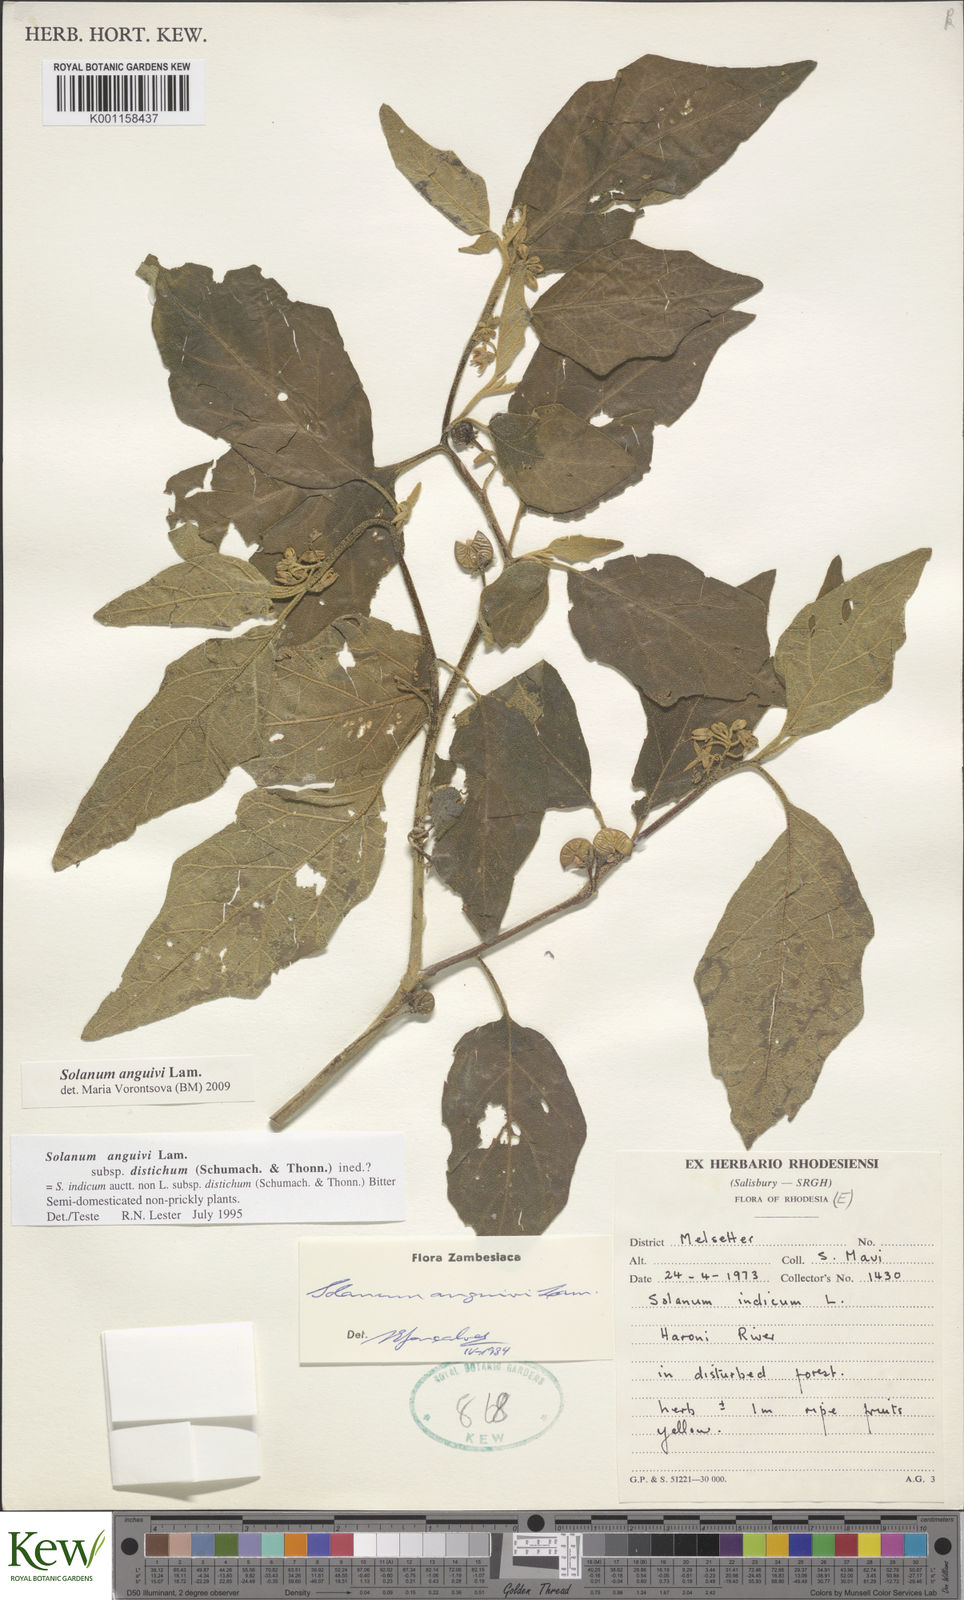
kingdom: Plantae
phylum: Tracheophyta
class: Magnoliopsida
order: Solanales
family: Solanaceae
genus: Solanum
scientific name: Solanum anguivi
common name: Forest bitterberry
